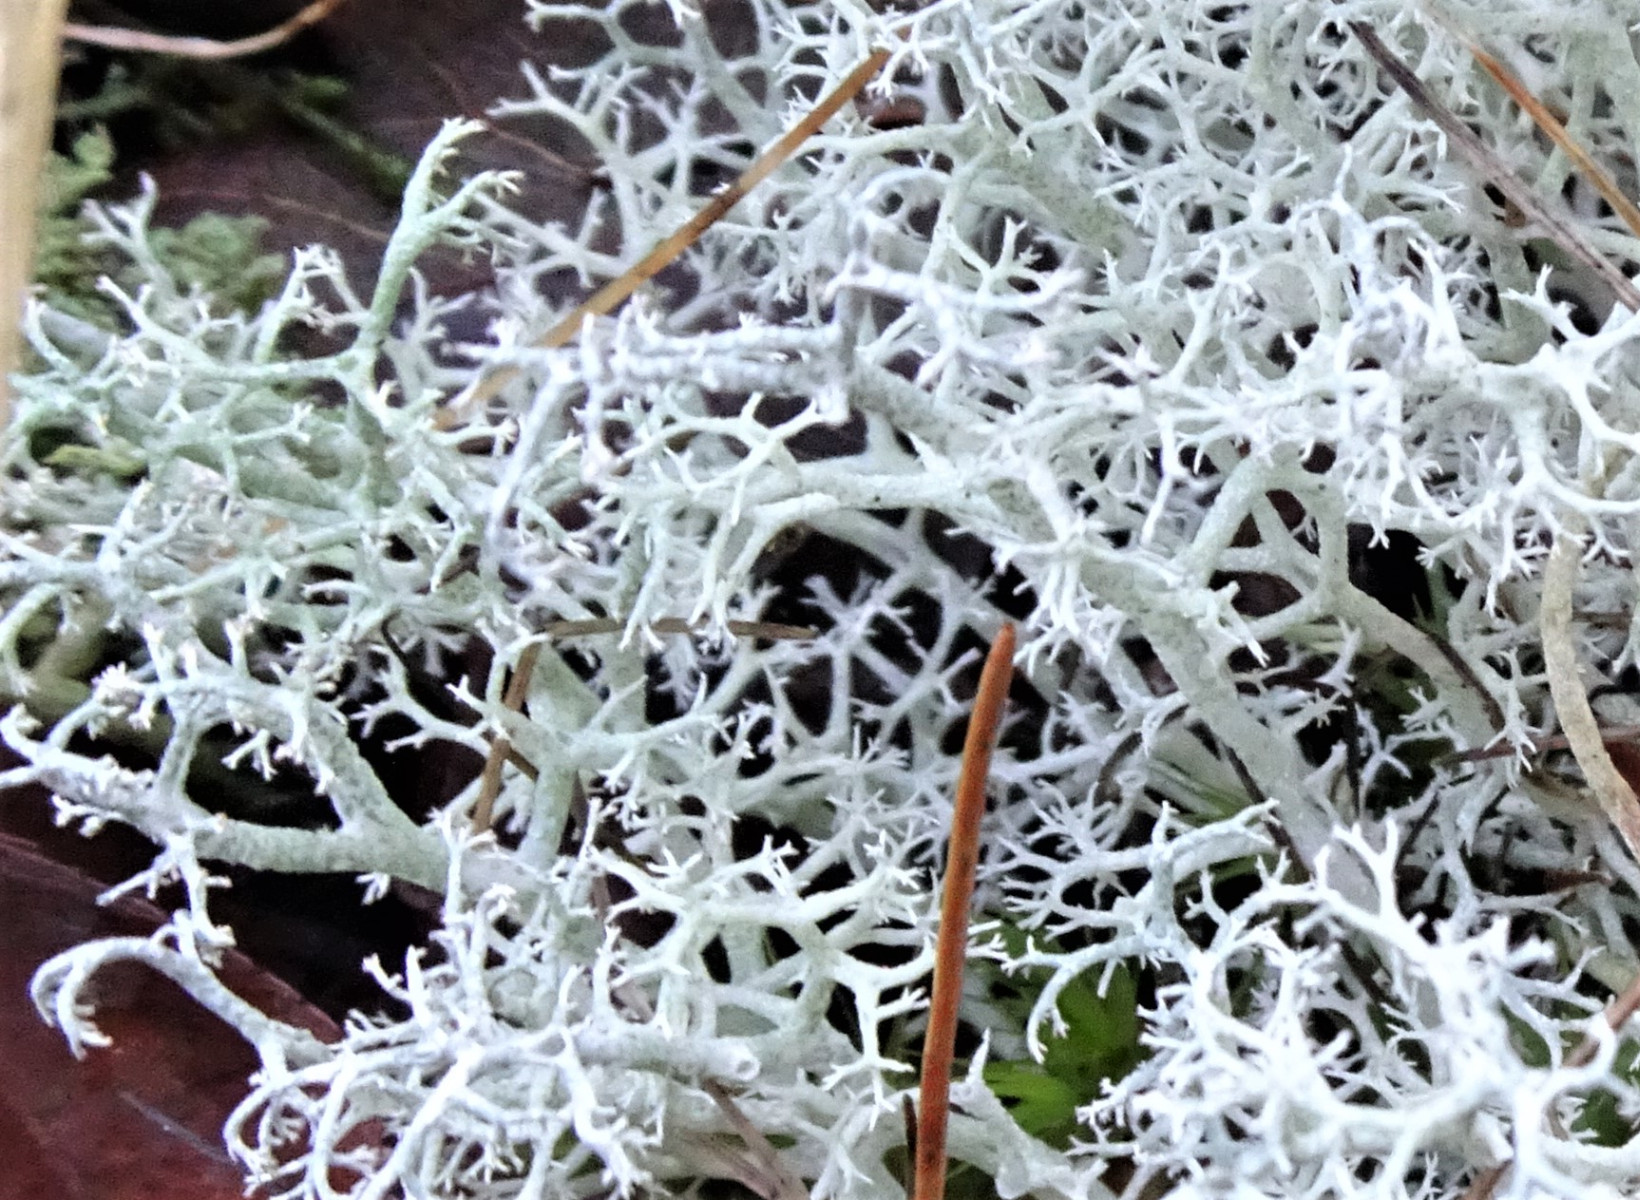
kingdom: Fungi
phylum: Ascomycota
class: Lecanoromycetes
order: Lecanorales
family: Cladoniaceae
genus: Cladonia
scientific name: Cladonia portentosa
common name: hede-rensdyrlav
